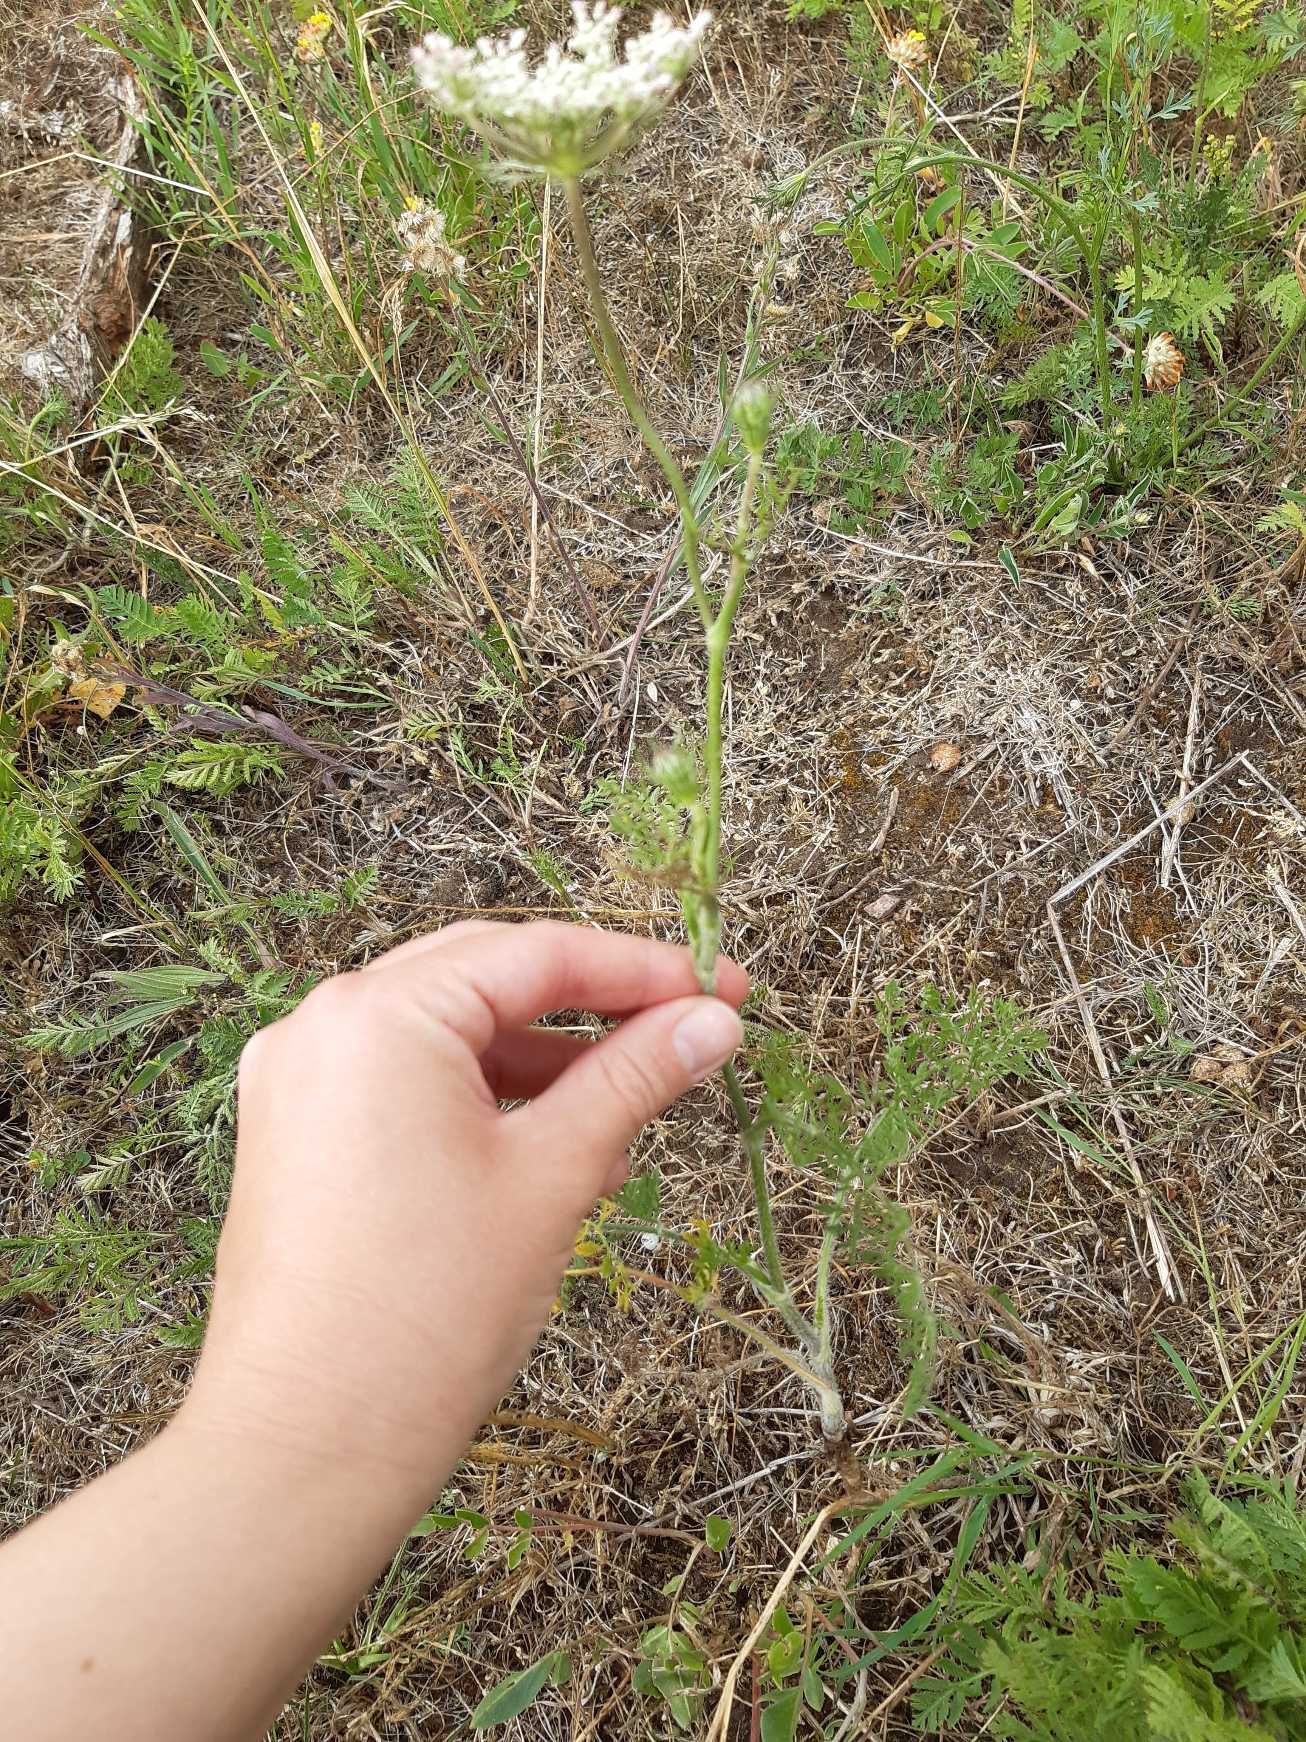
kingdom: Plantae
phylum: Tracheophyta
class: Magnoliopsida
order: Apiales
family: Apiaceae
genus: Daucus
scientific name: Daucus carota
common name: Vild gulerod
